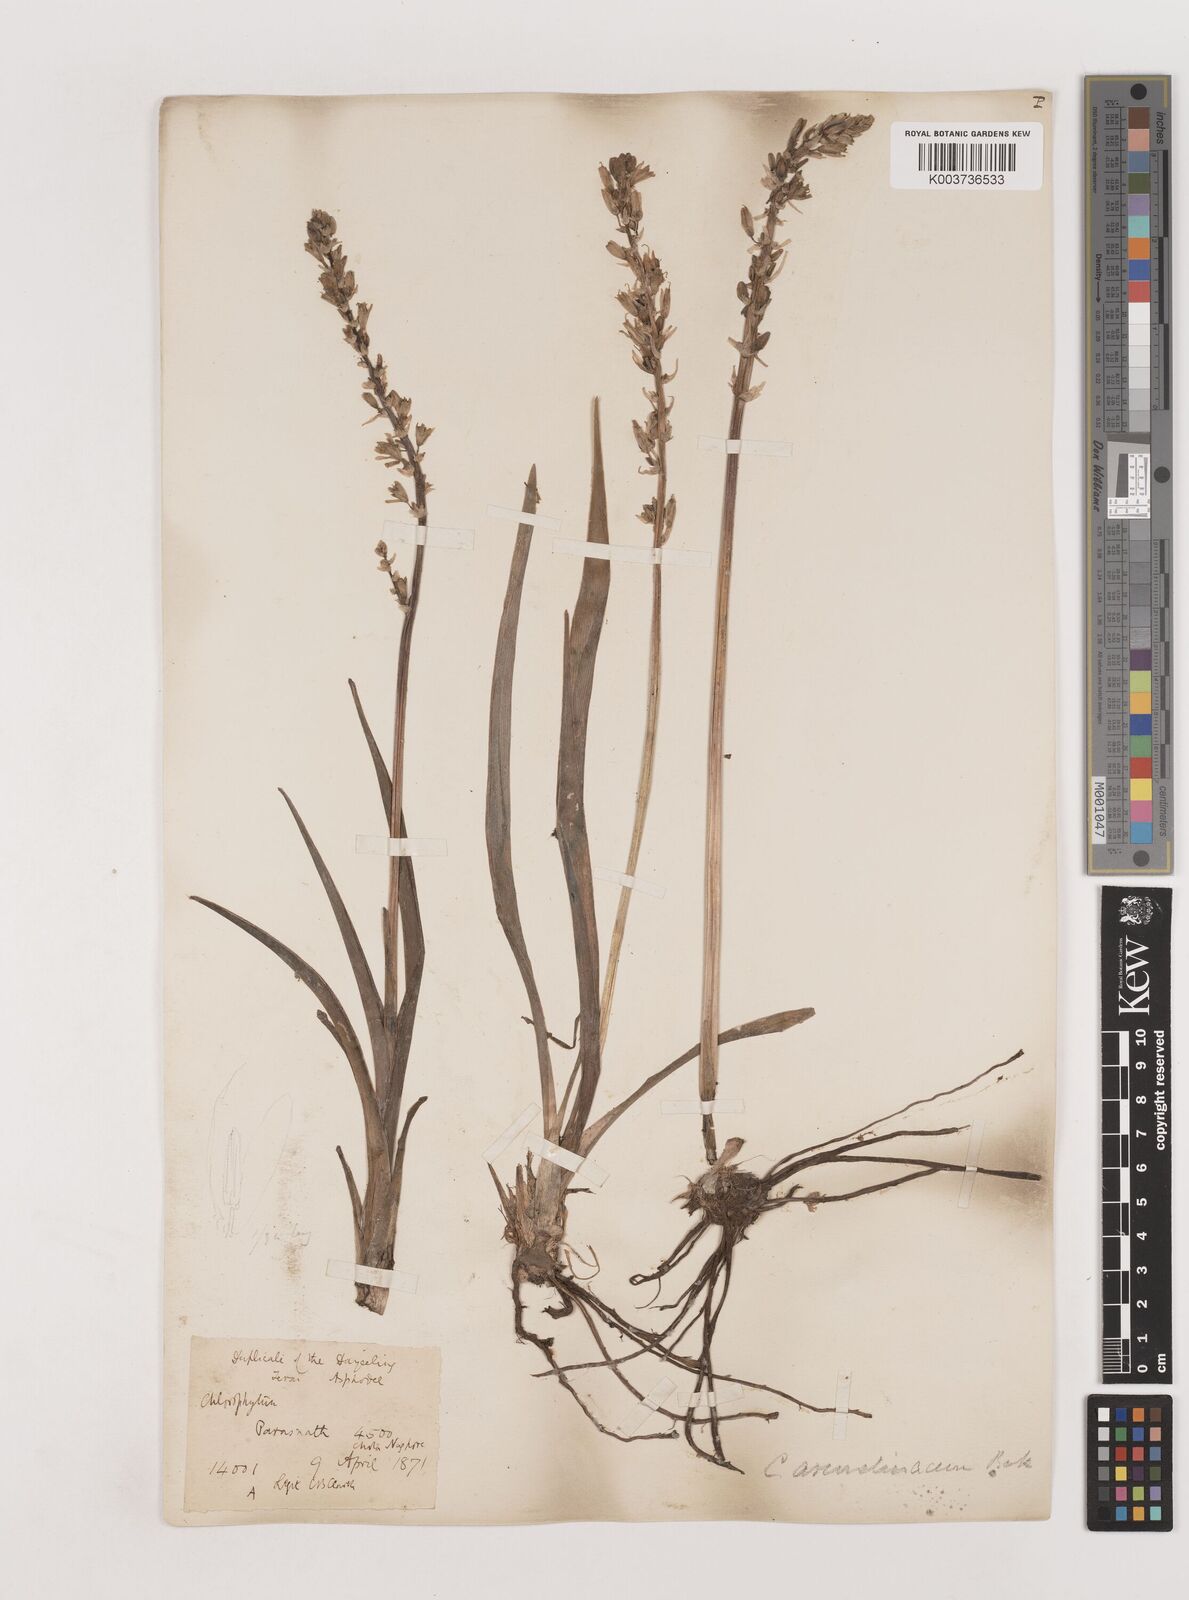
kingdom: Plantae
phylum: Tracheophyta
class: Liliopsida
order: Asparagales
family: Asparagaceae
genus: Chlorophytum
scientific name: Chlorophytum arundinaceum
